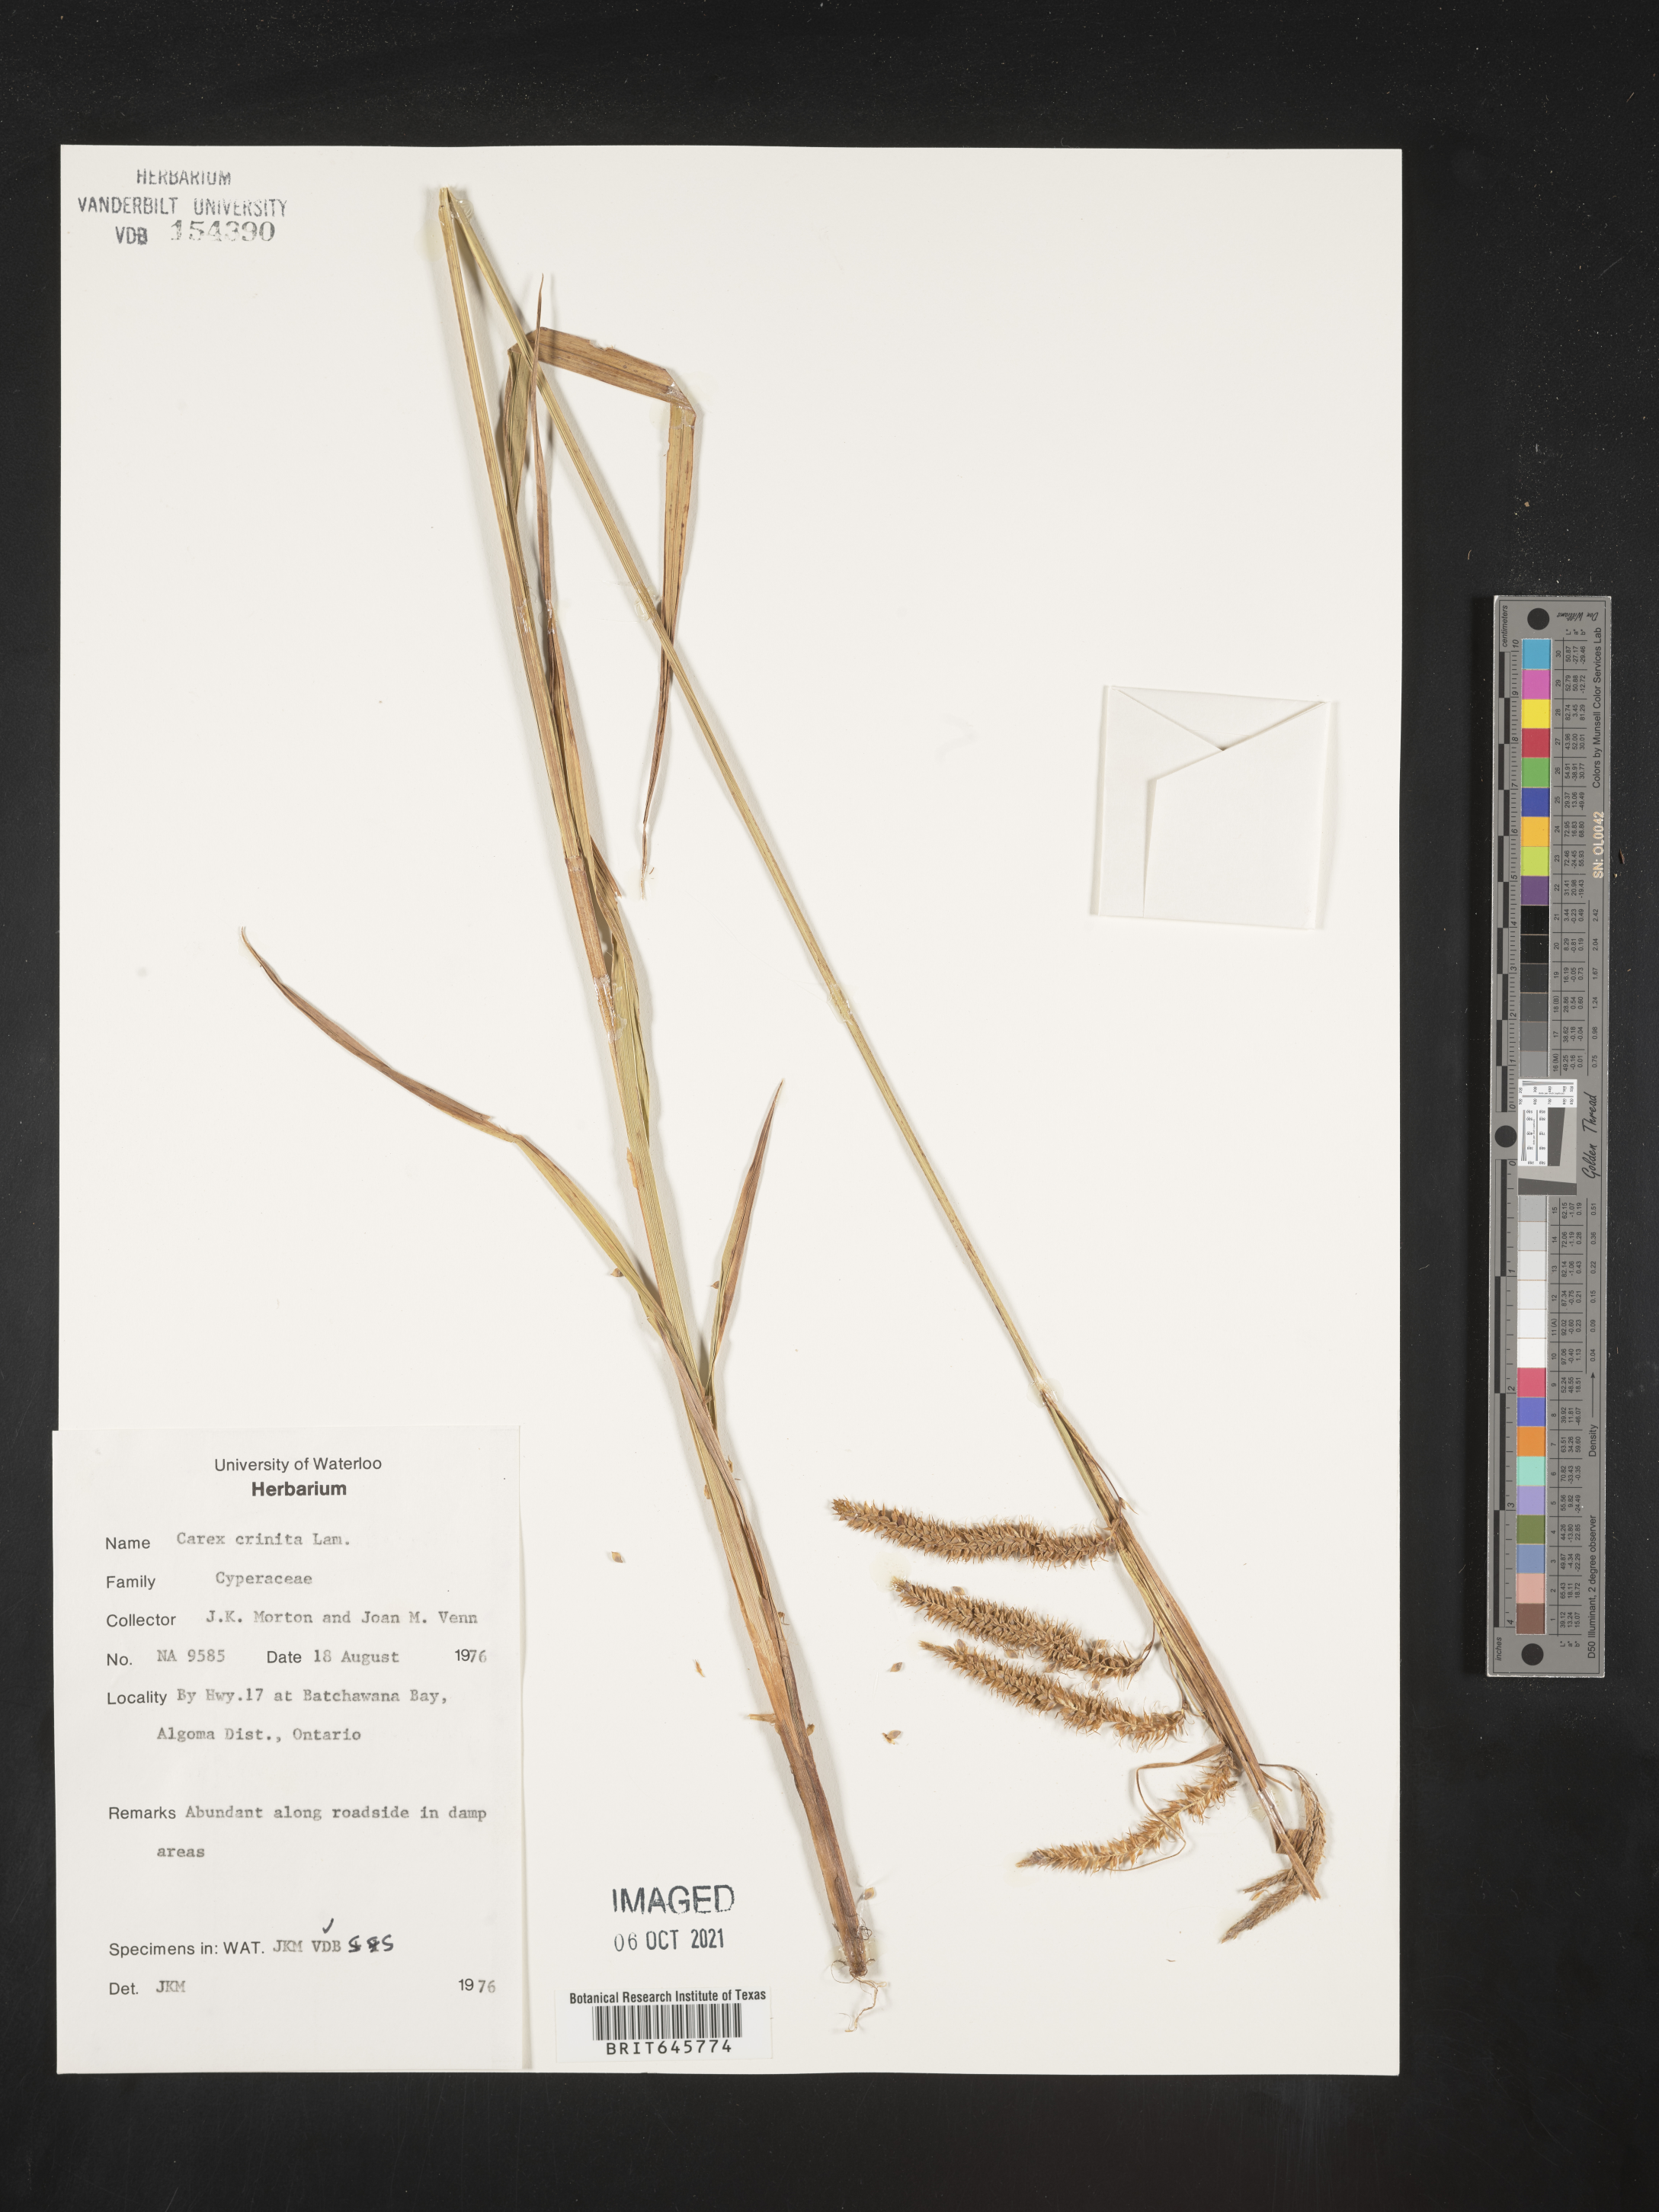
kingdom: Plantae
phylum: Tracheophyta
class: Liliopsida
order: Poales
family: Cyperaceae
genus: Carex
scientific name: Carex crinita
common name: Fringed sedge
